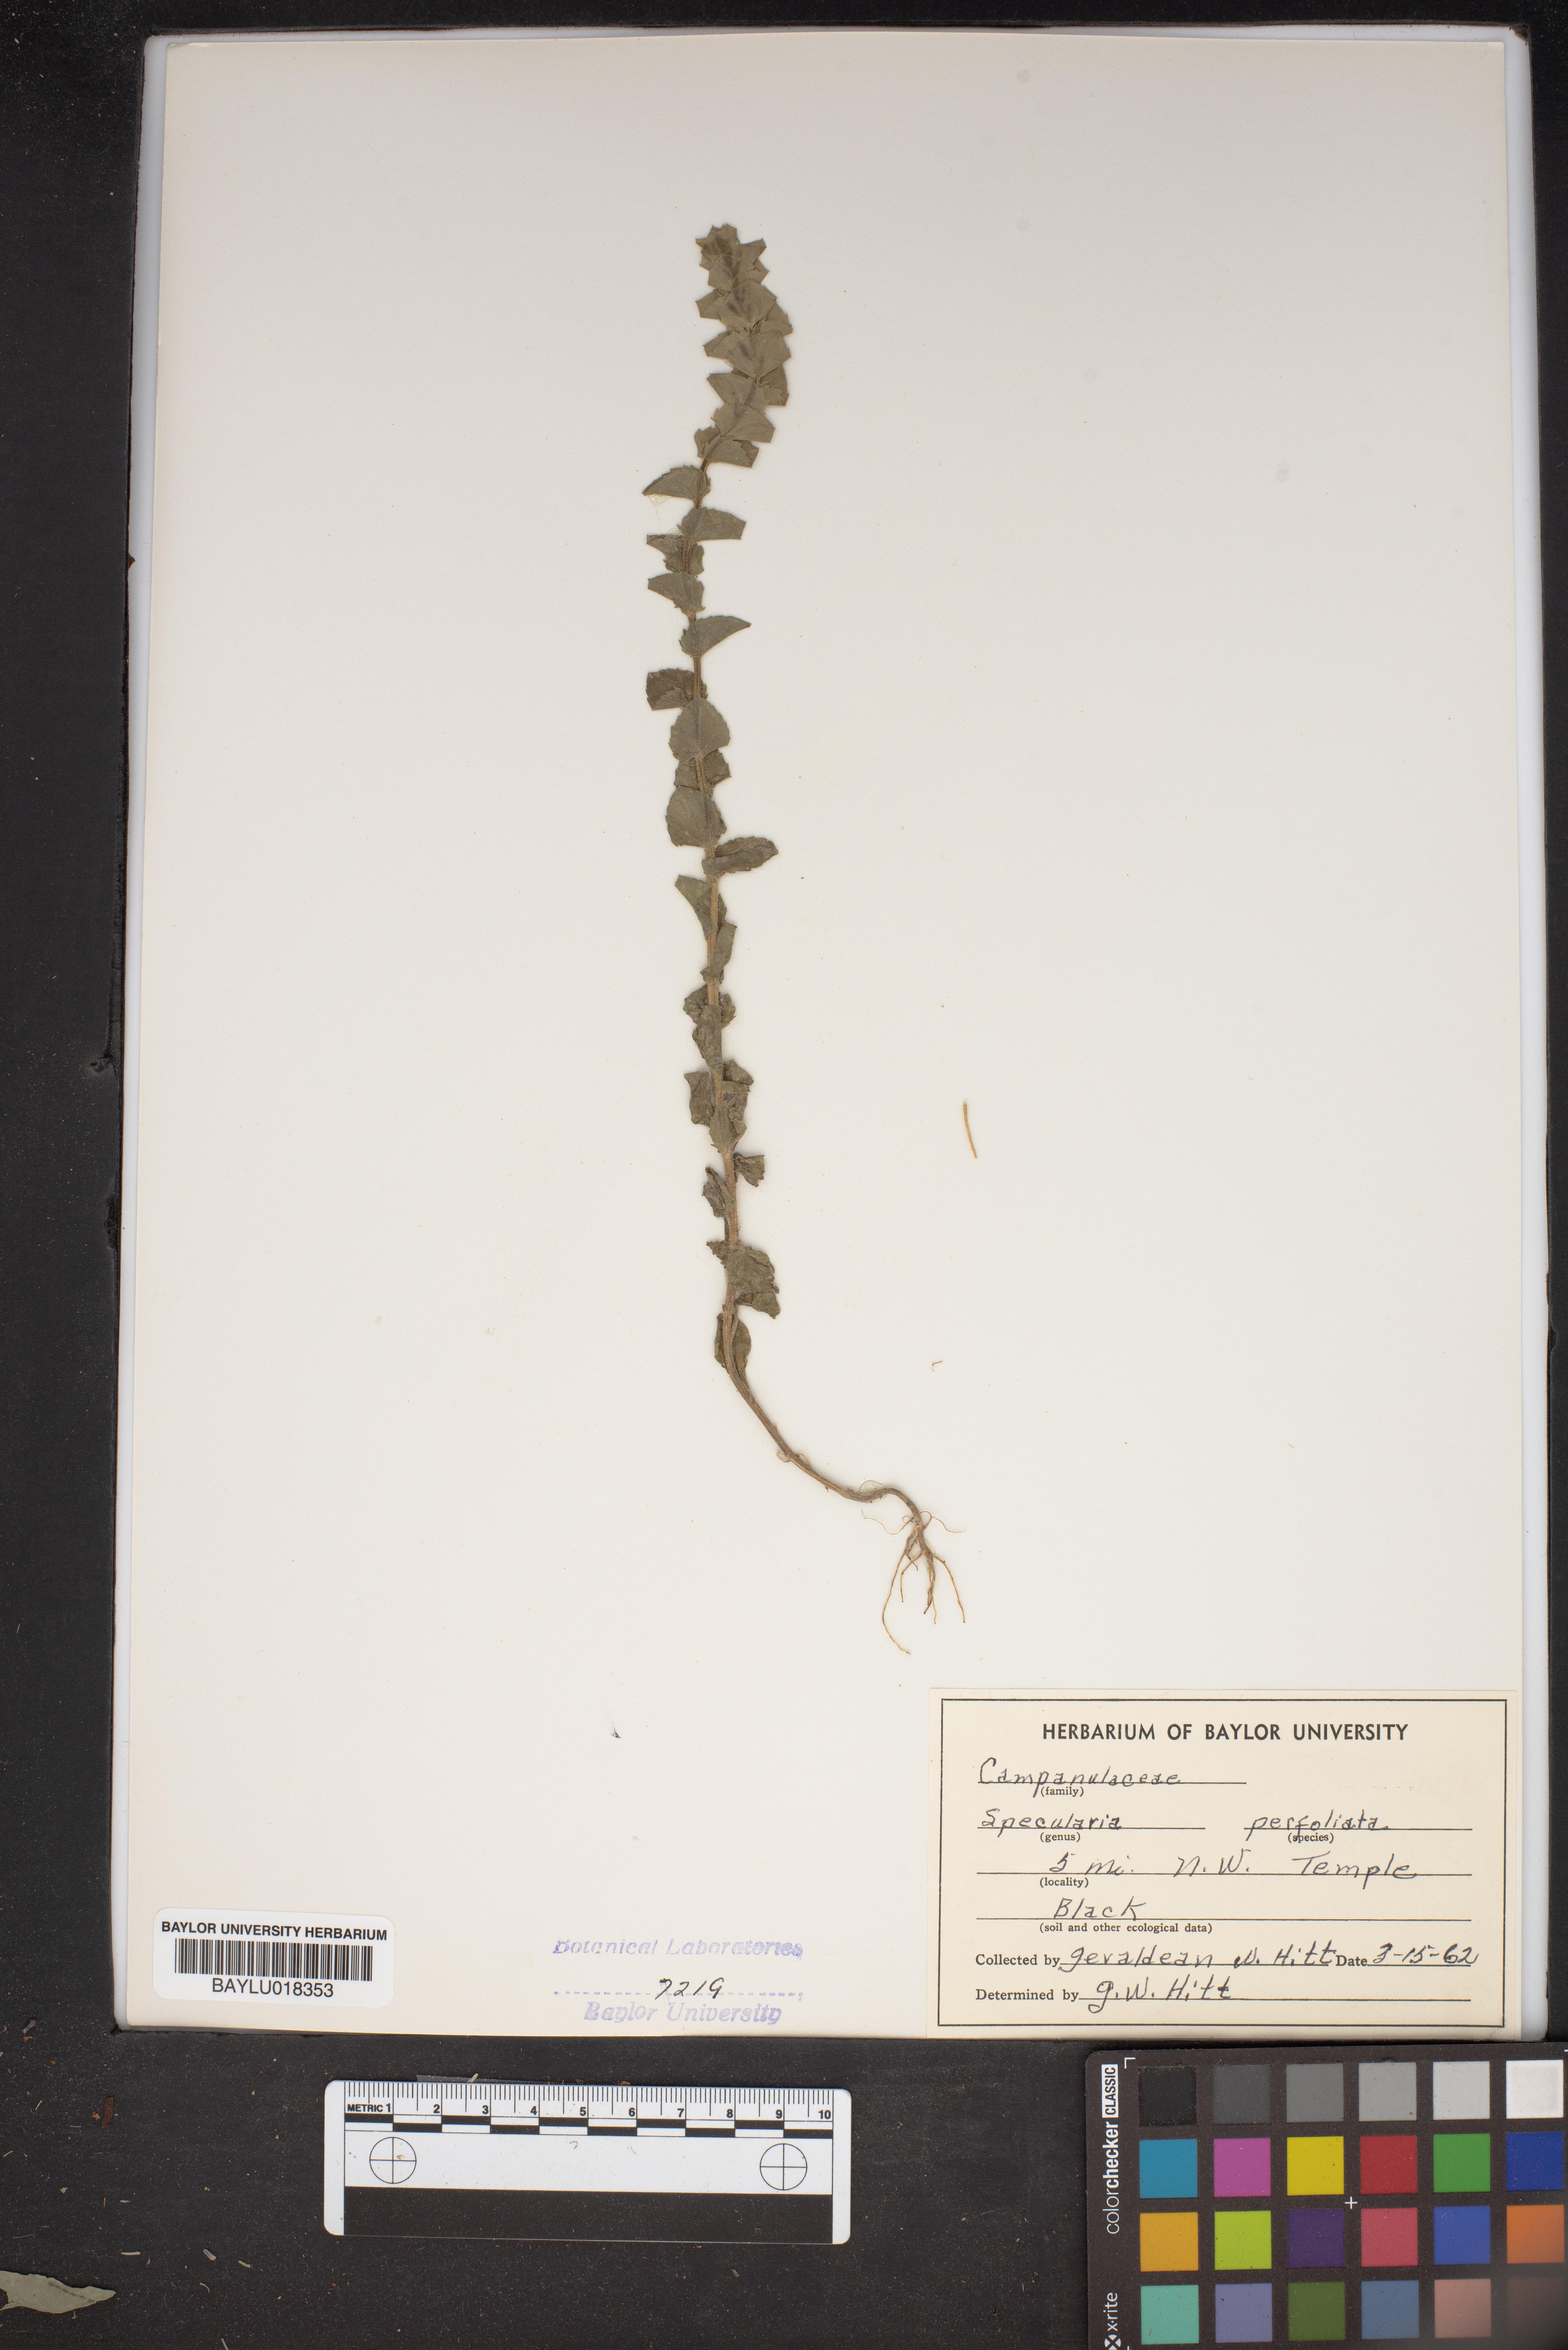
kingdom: Plantae
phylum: Tracheophyta
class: Magnoliopsida
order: Asterales
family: Campanulaceae
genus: Triodanis
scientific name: Triodanis perfoliata
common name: Clasping venus' looking-glass
